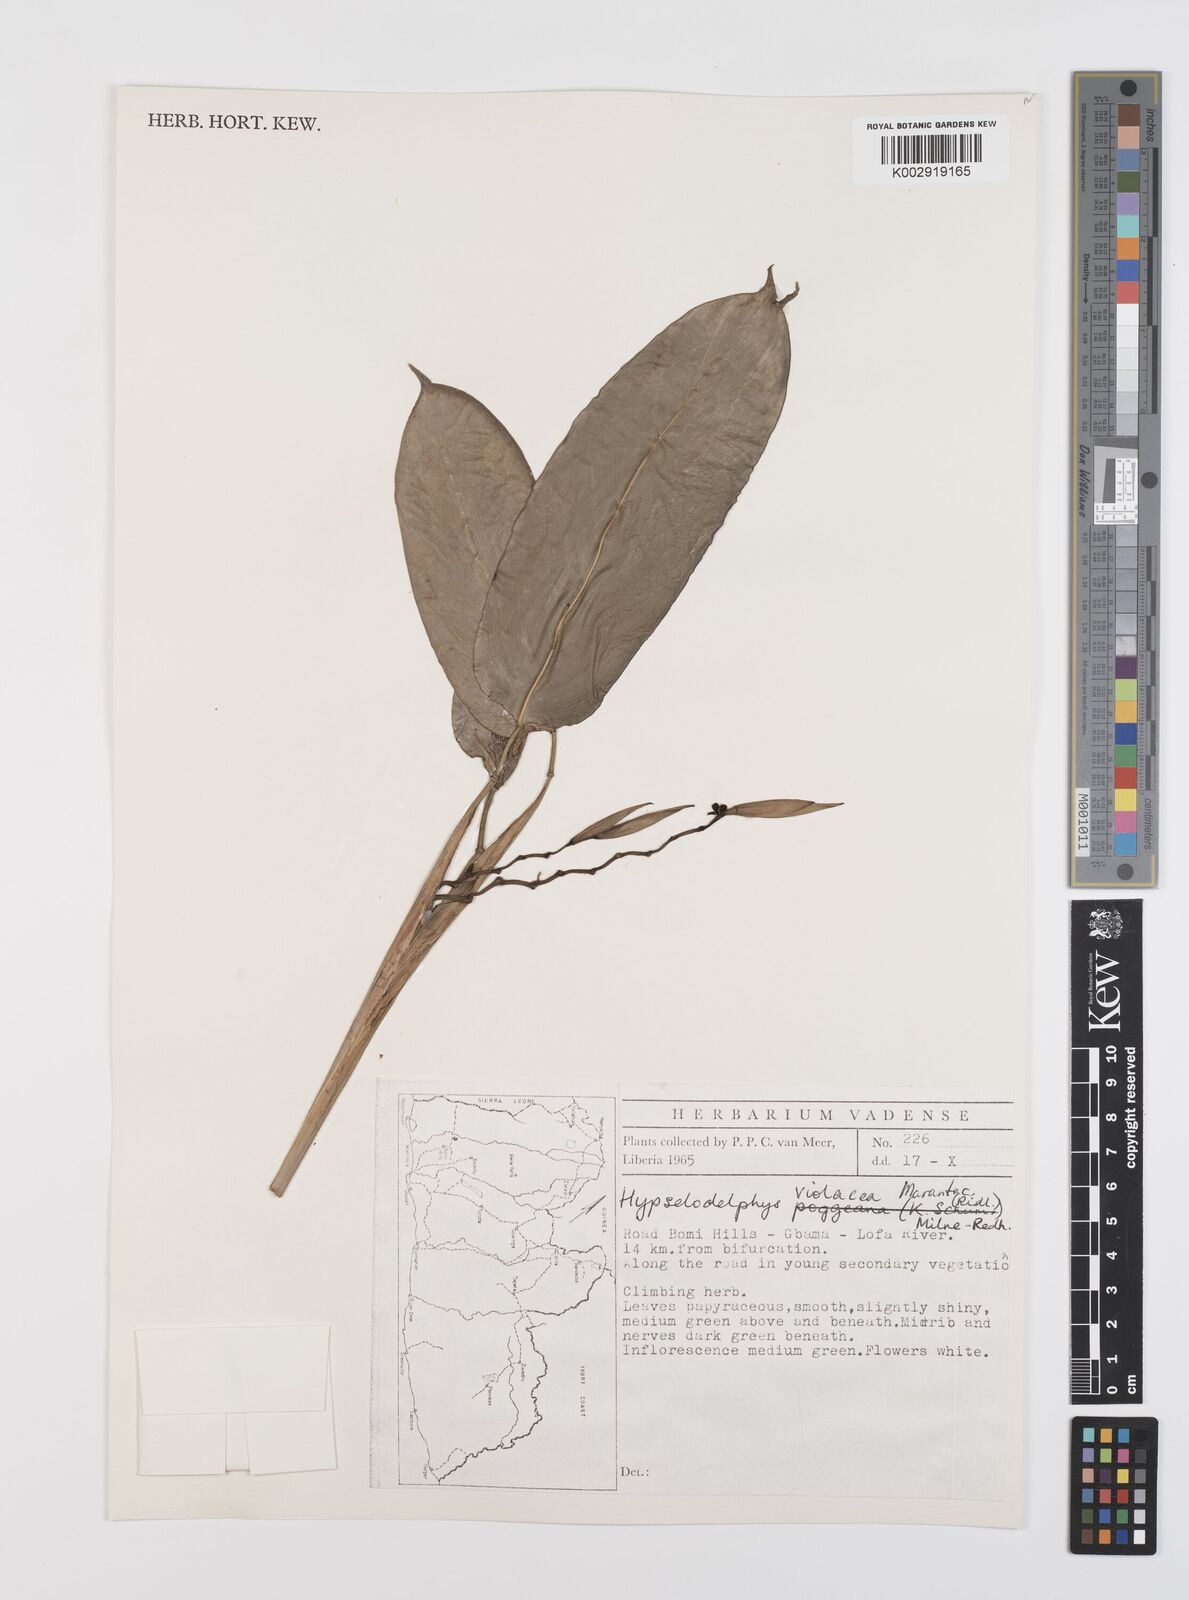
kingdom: Plantae
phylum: Tracheophyta
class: Liliopsida
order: Zingiberales
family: Marantaceae
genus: Hypselodelphys
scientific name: Hypselodelphys violacea
